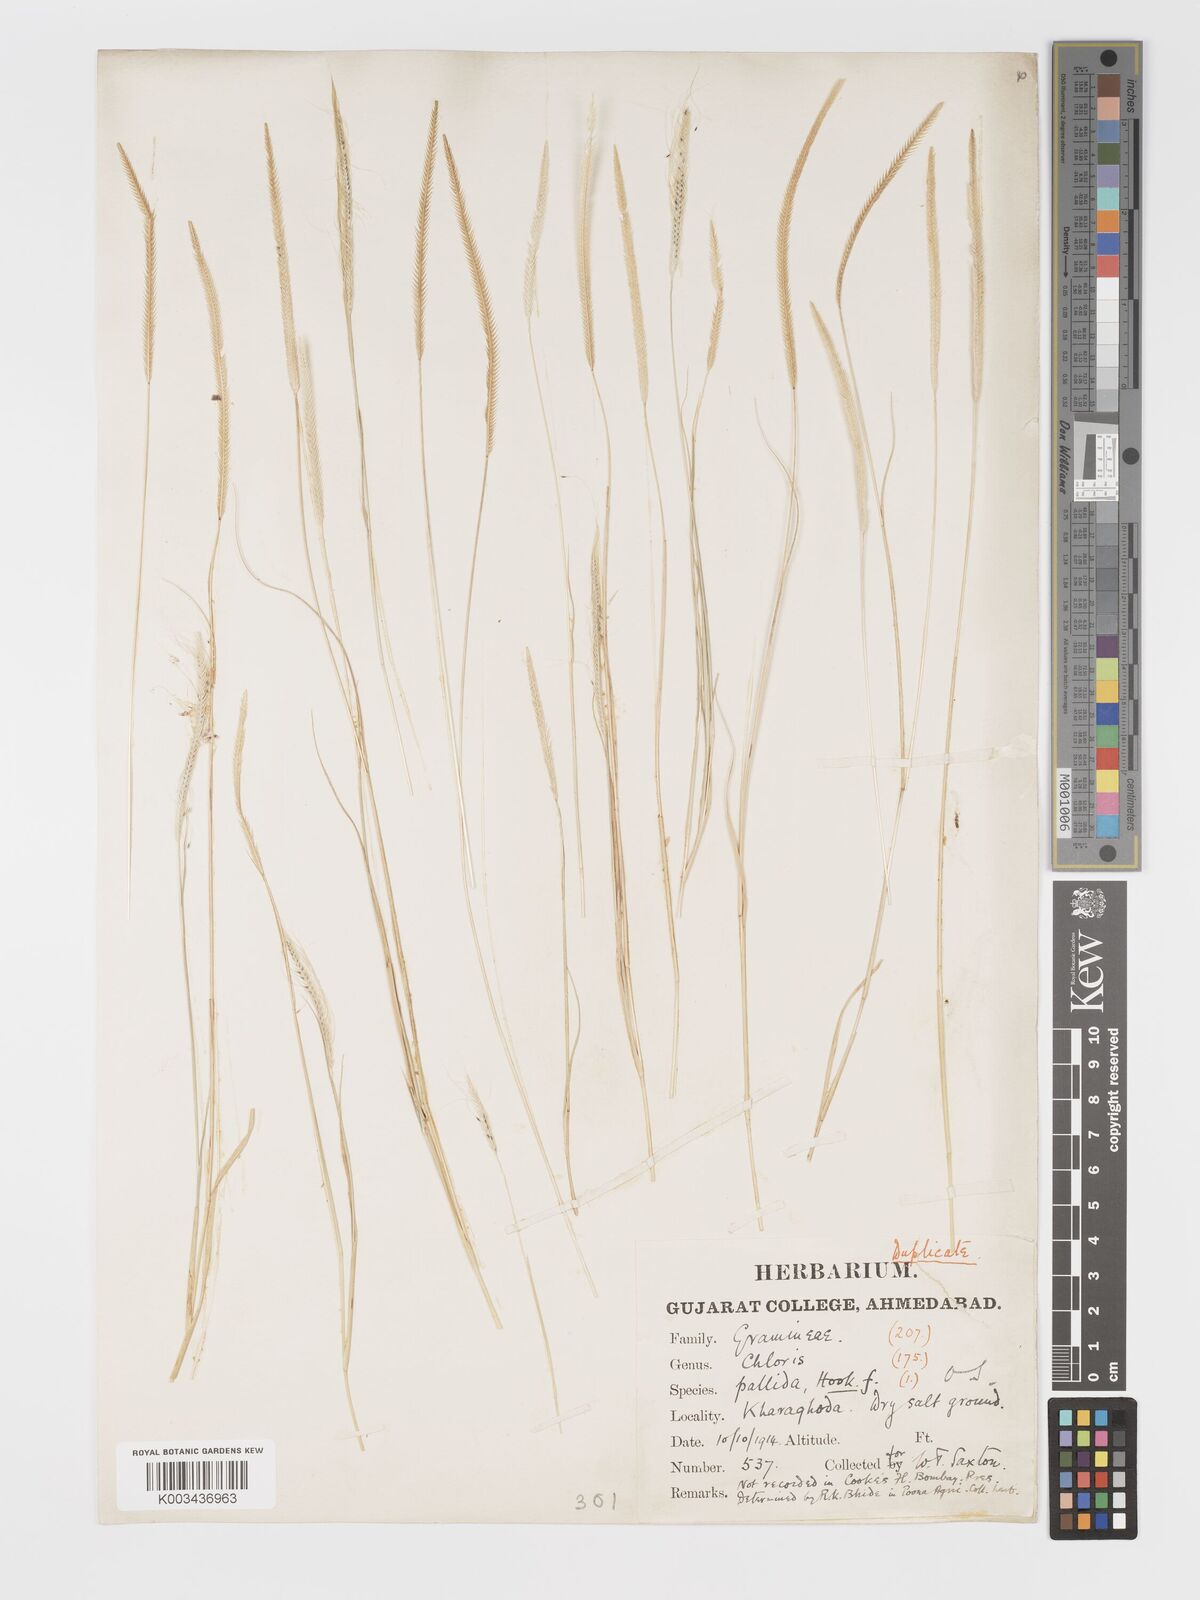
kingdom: Plantae
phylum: Tracheophyta
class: Liliopsida
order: Poales
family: Poaceae
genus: Schoenefeldia
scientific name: Schoenefeldia gracilis
